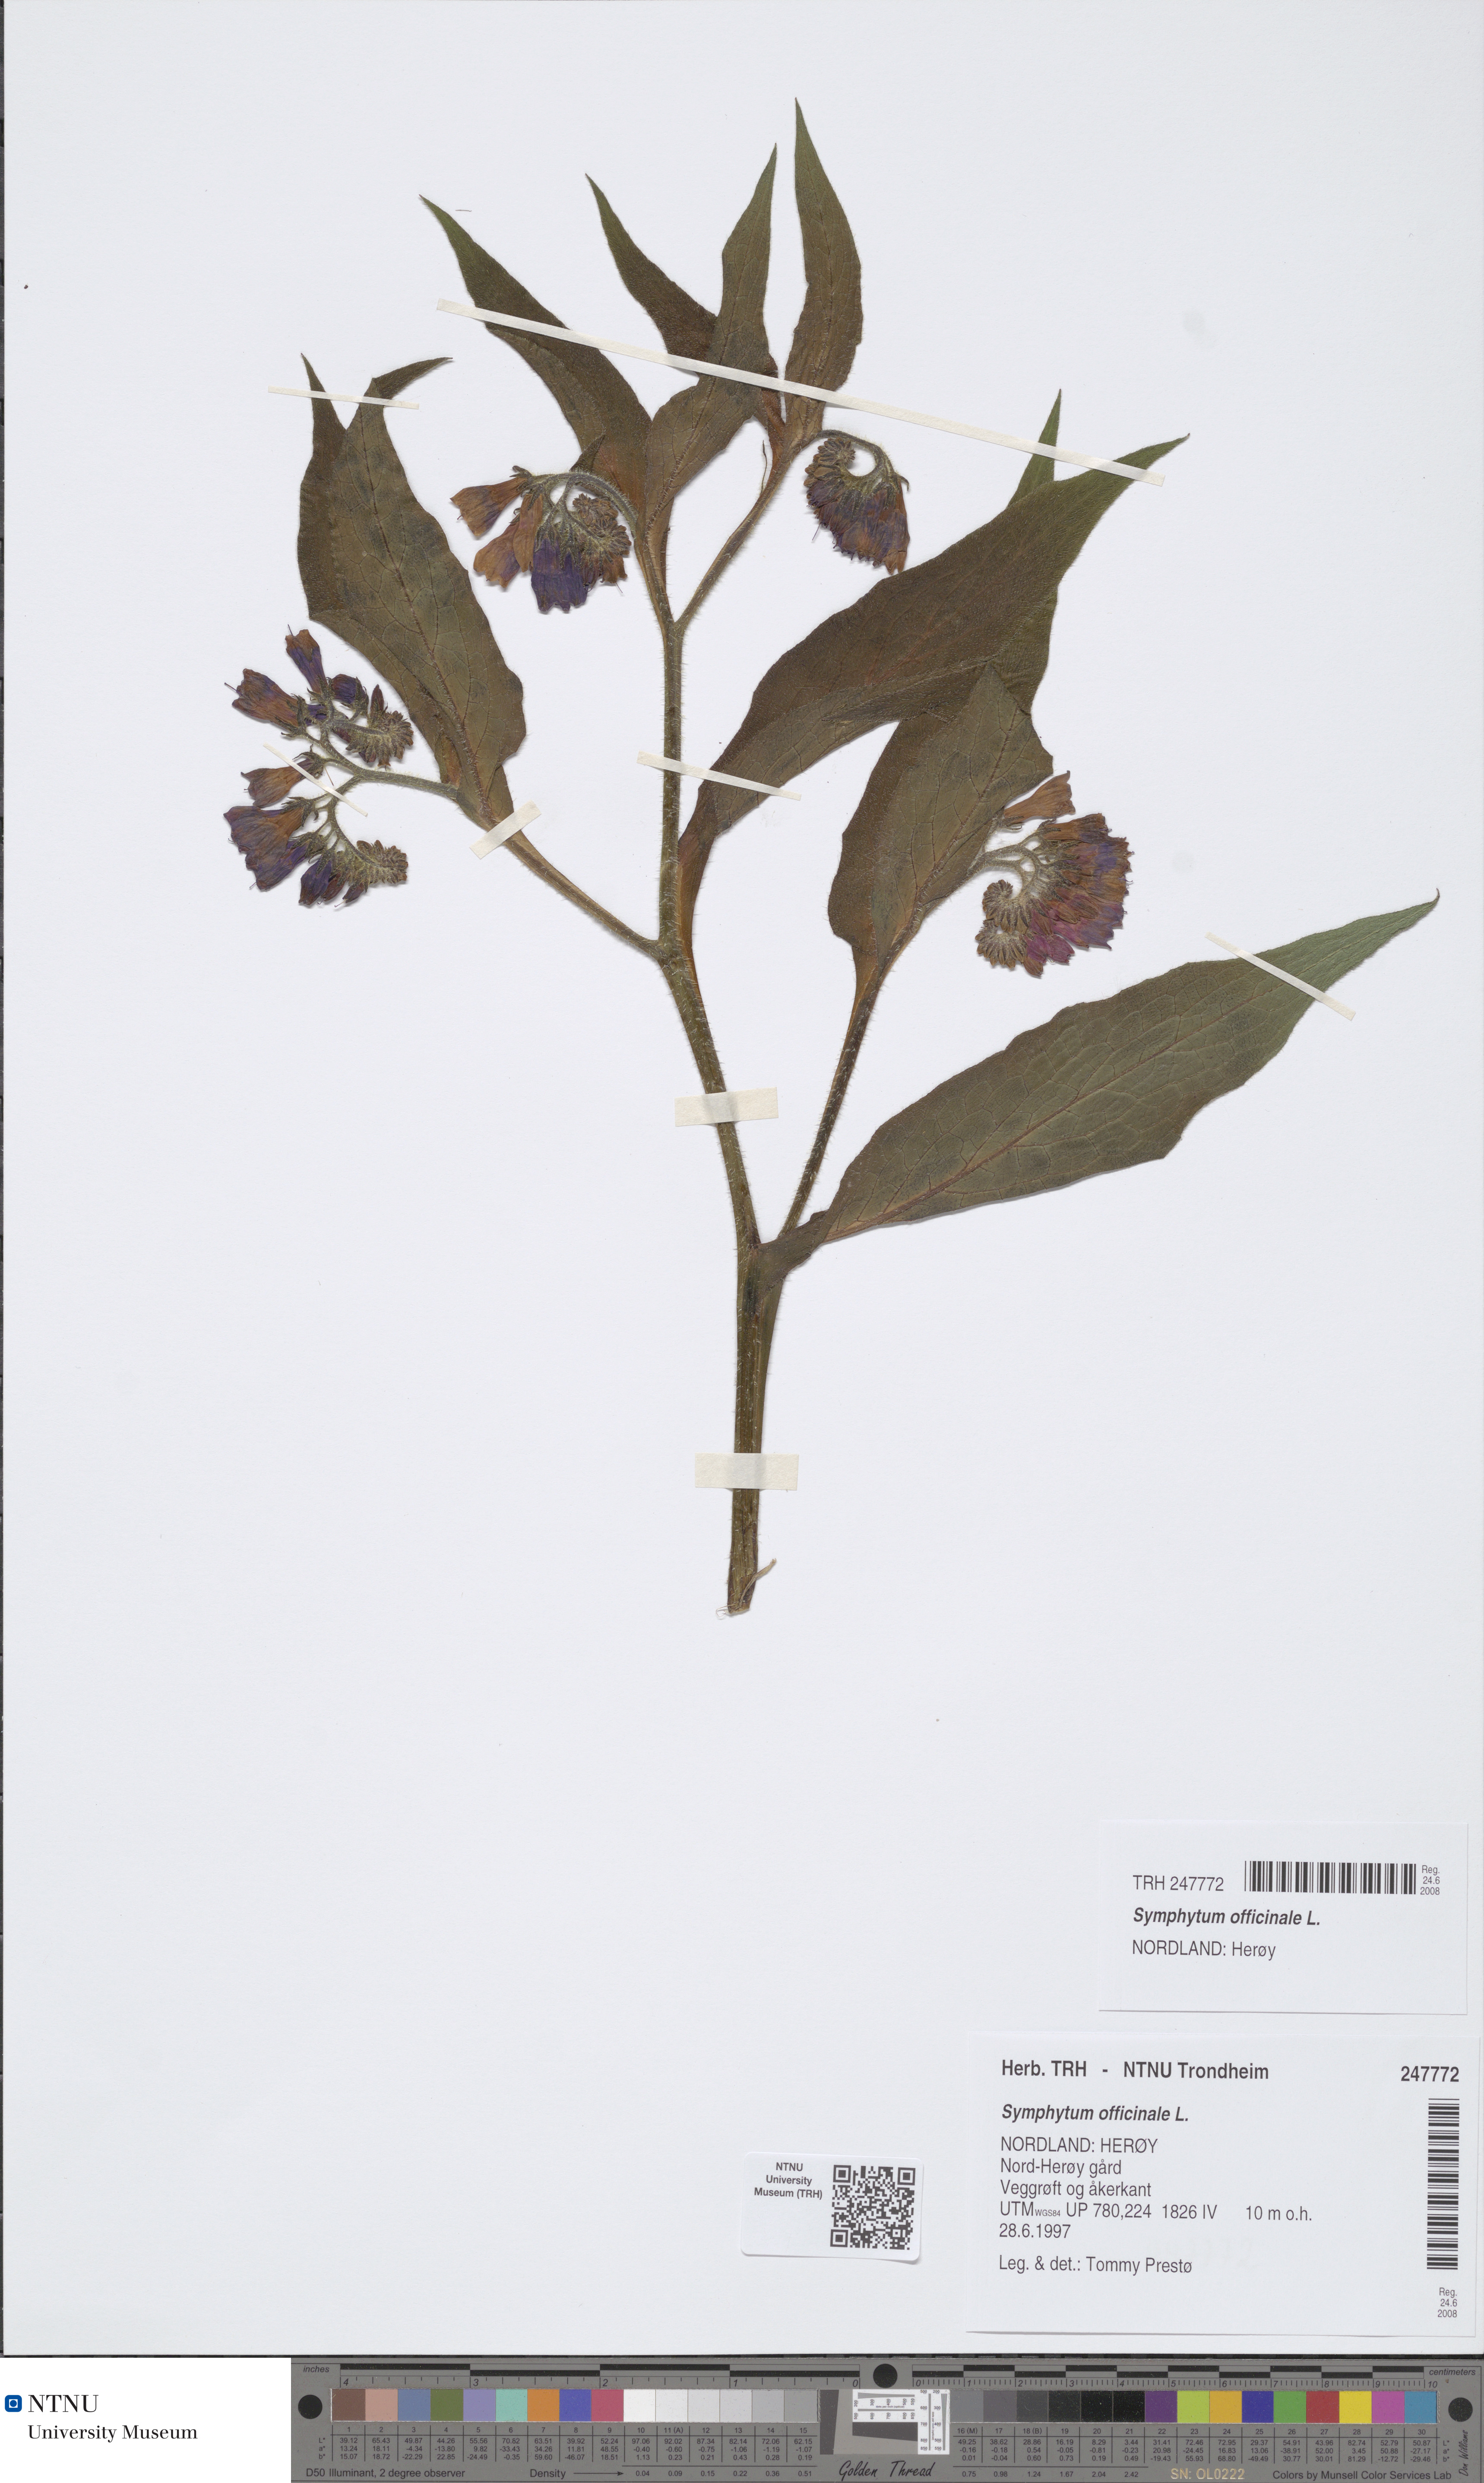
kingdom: Plantae
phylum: Tracheophyta
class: Magnoliopsida
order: Boraginales
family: Boraginaceae
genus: Symphytum
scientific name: Symphytum officinale
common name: Common comfrey
